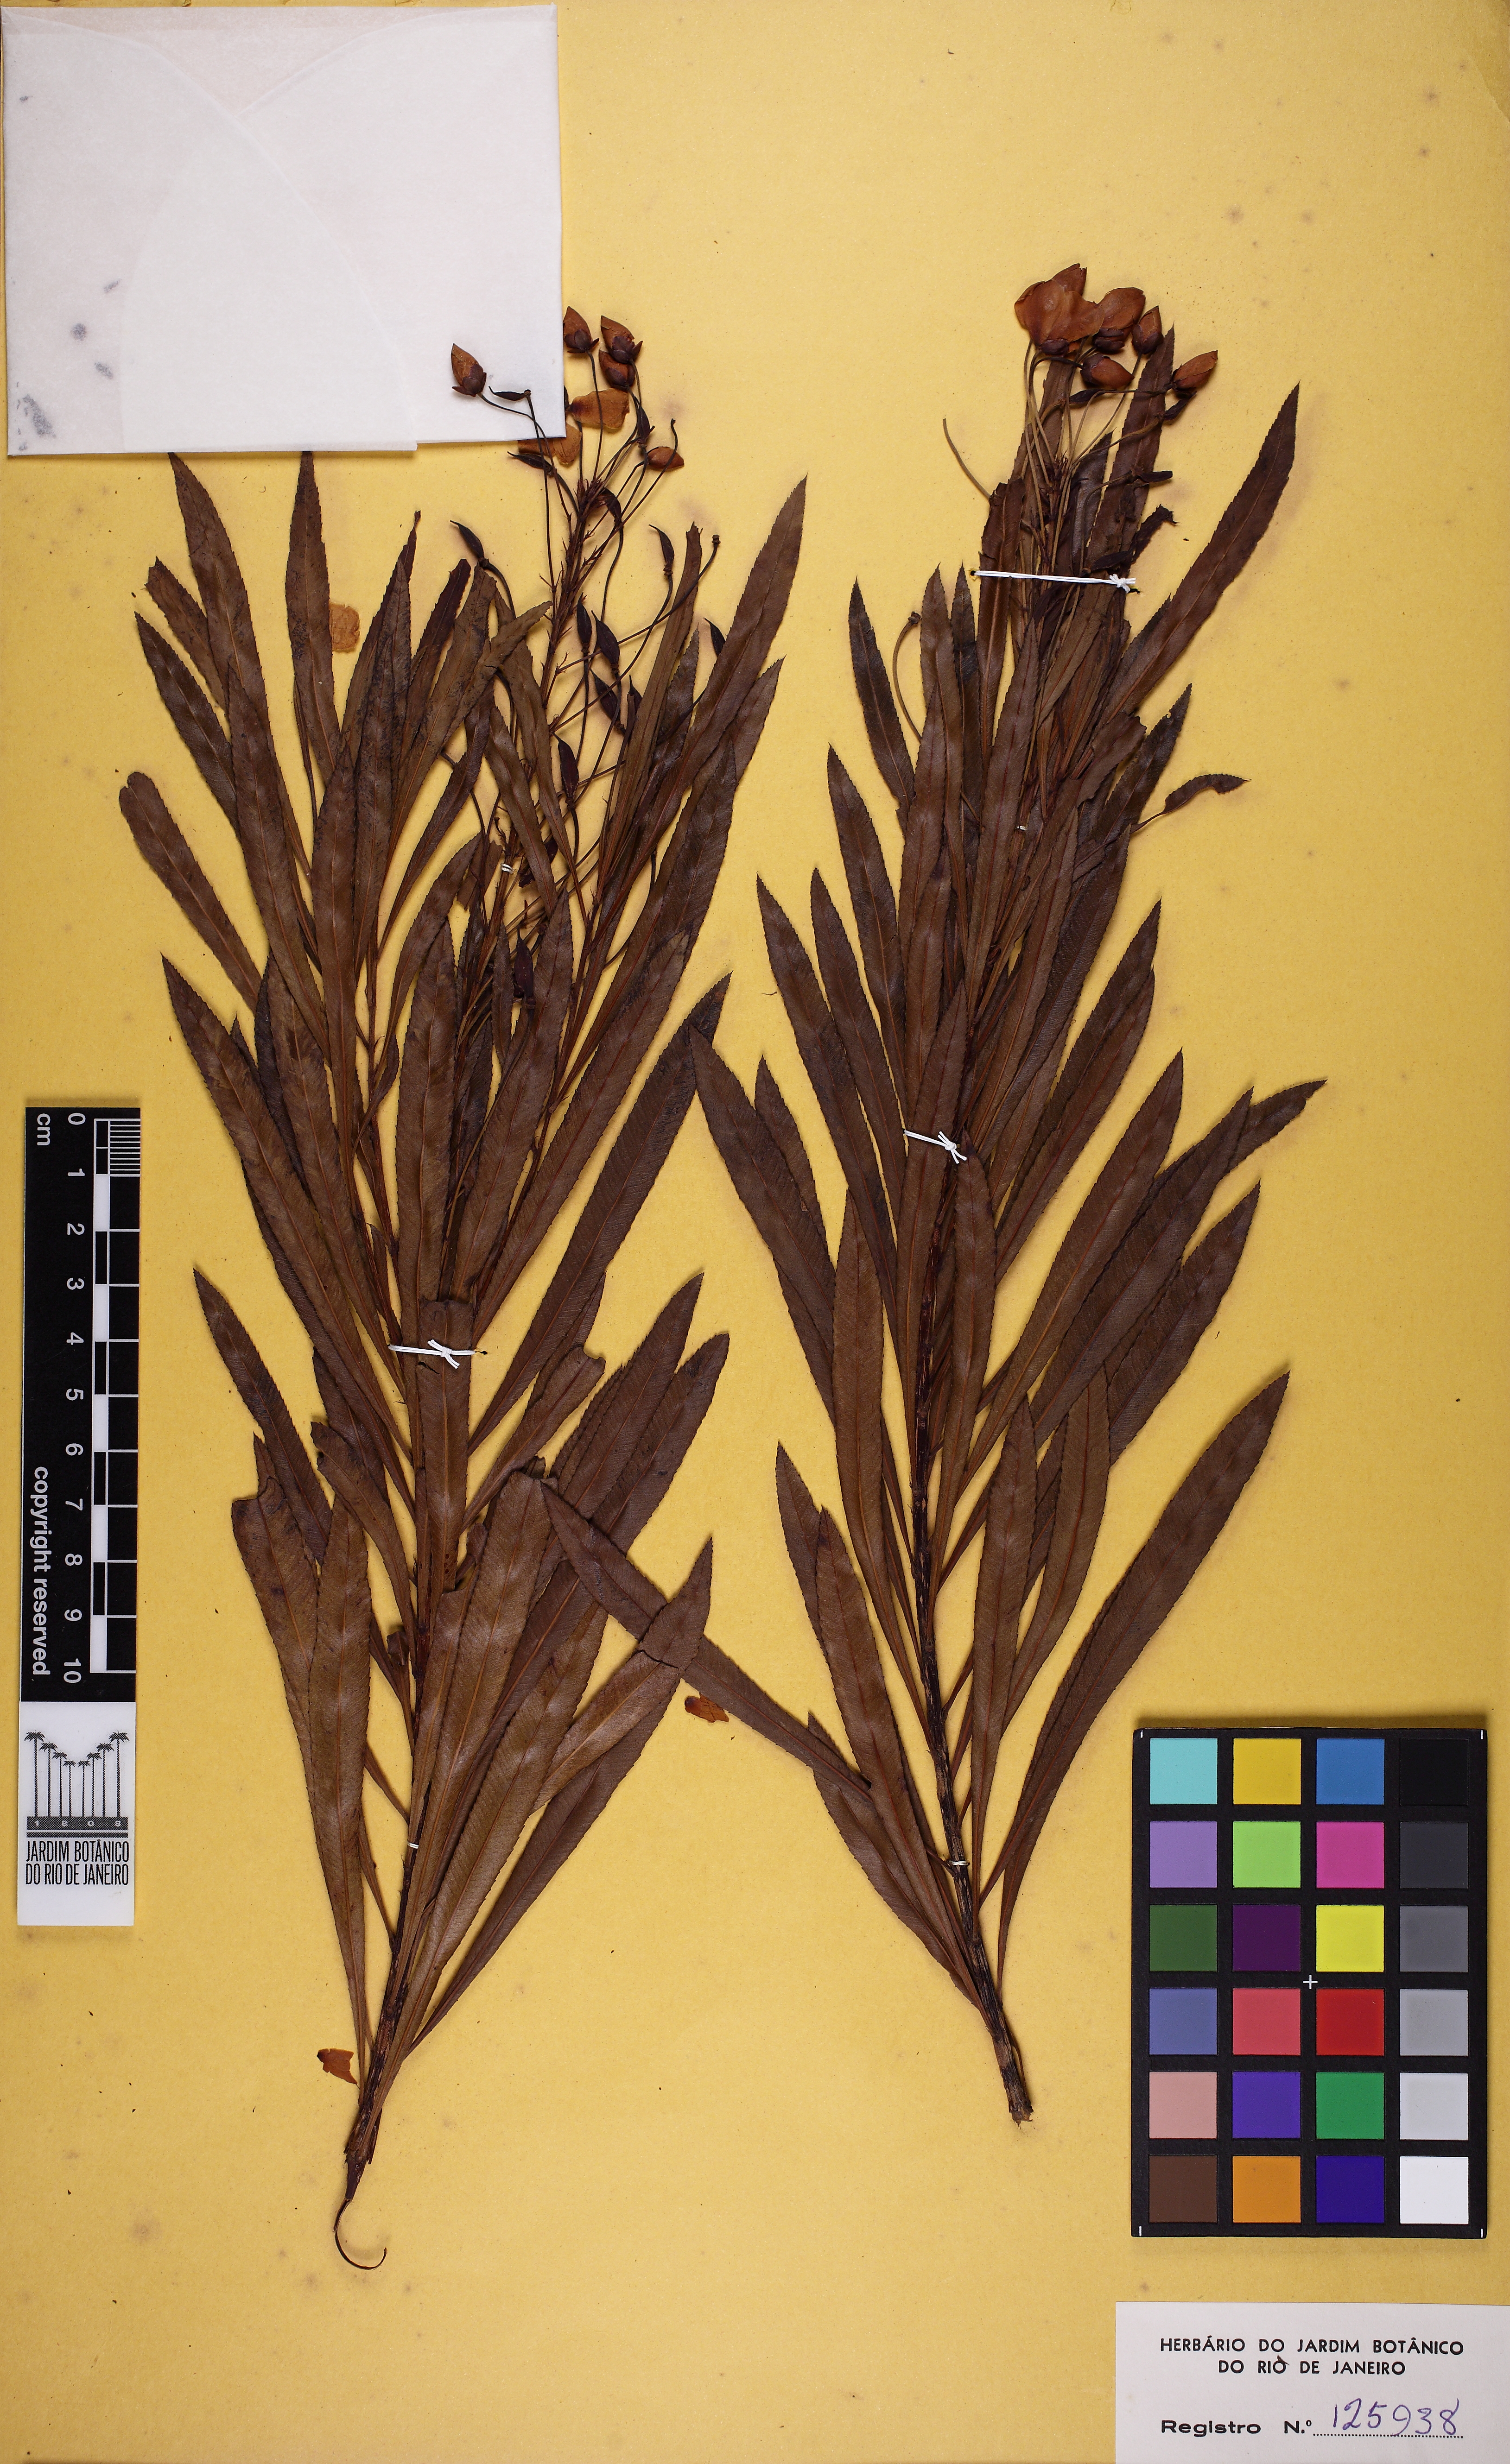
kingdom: Plantae
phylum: Tracheophyta
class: Magnoliopsida
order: Malpighiales
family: Ochnaceae
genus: Luxemburgia
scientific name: Luxemburgia angustifolia
